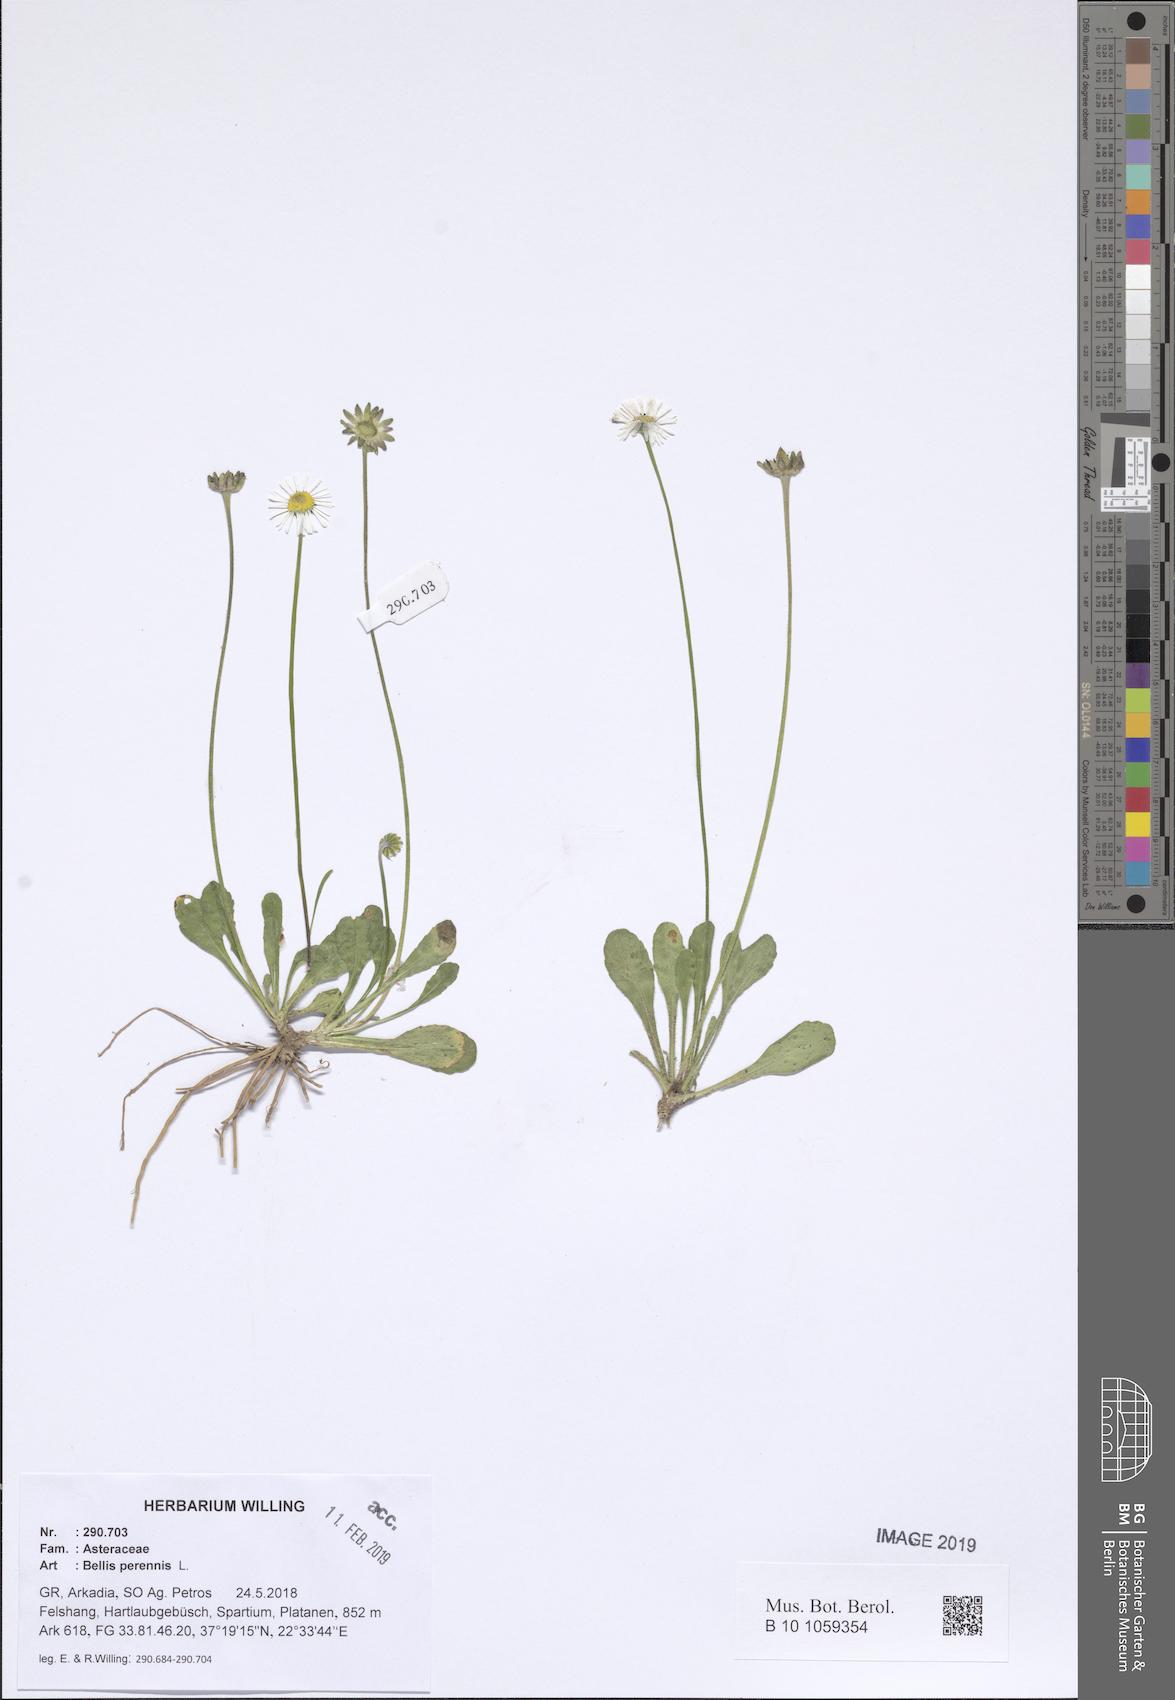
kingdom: Plantae
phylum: Tracheophyta
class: Magnoliopsida
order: Asterales
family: Asteraceae
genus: Bellis
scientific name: Bellis perennis
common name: Lawndaisy
